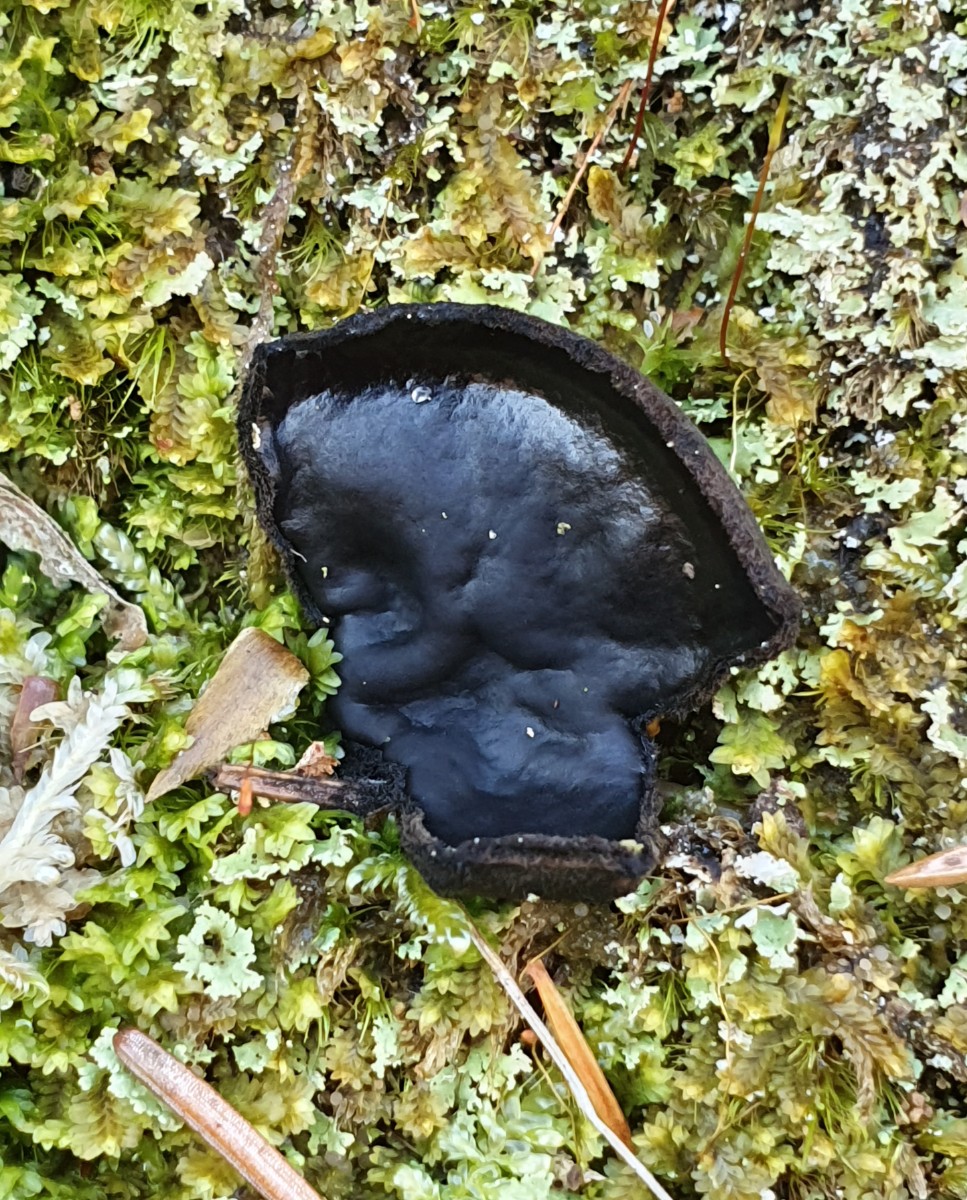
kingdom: Fungi
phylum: Ascomycota
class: Pezizomycetes
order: Pezizales
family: Sarcosomataceae
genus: Pseudoplectania
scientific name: Pseudoplectania nigrella
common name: almindelig sortbæger
